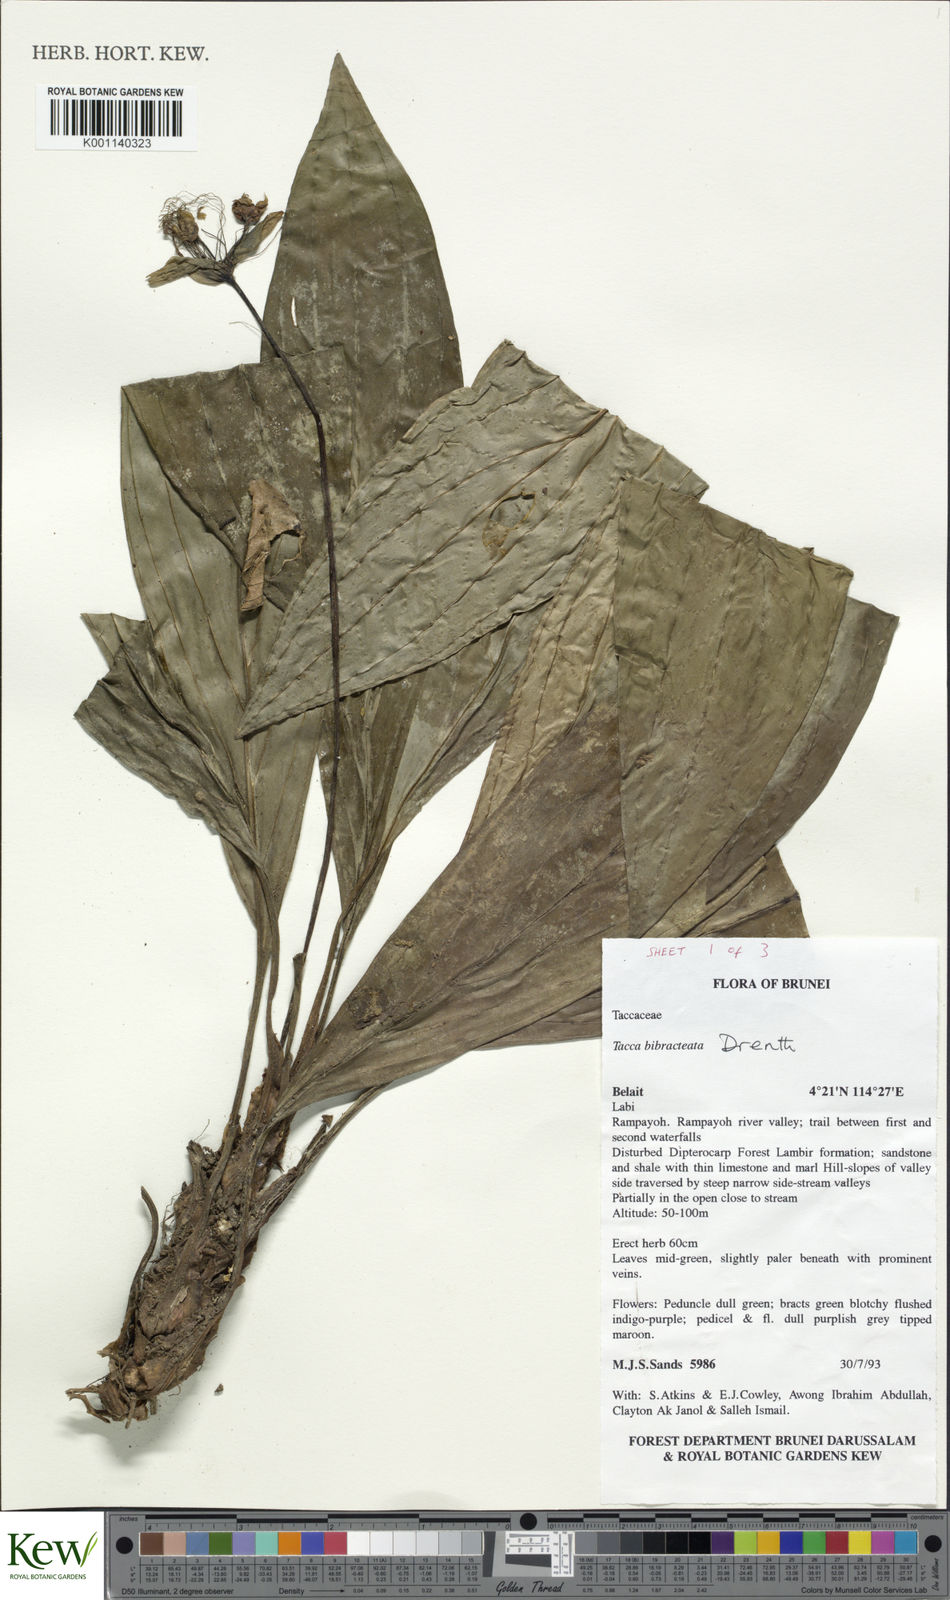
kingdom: Plantae
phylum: Tracheophyta
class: Liliopsida
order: Dioscoreales
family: Dioscoreaceae
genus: Tacca
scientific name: Tacca bibracteata
